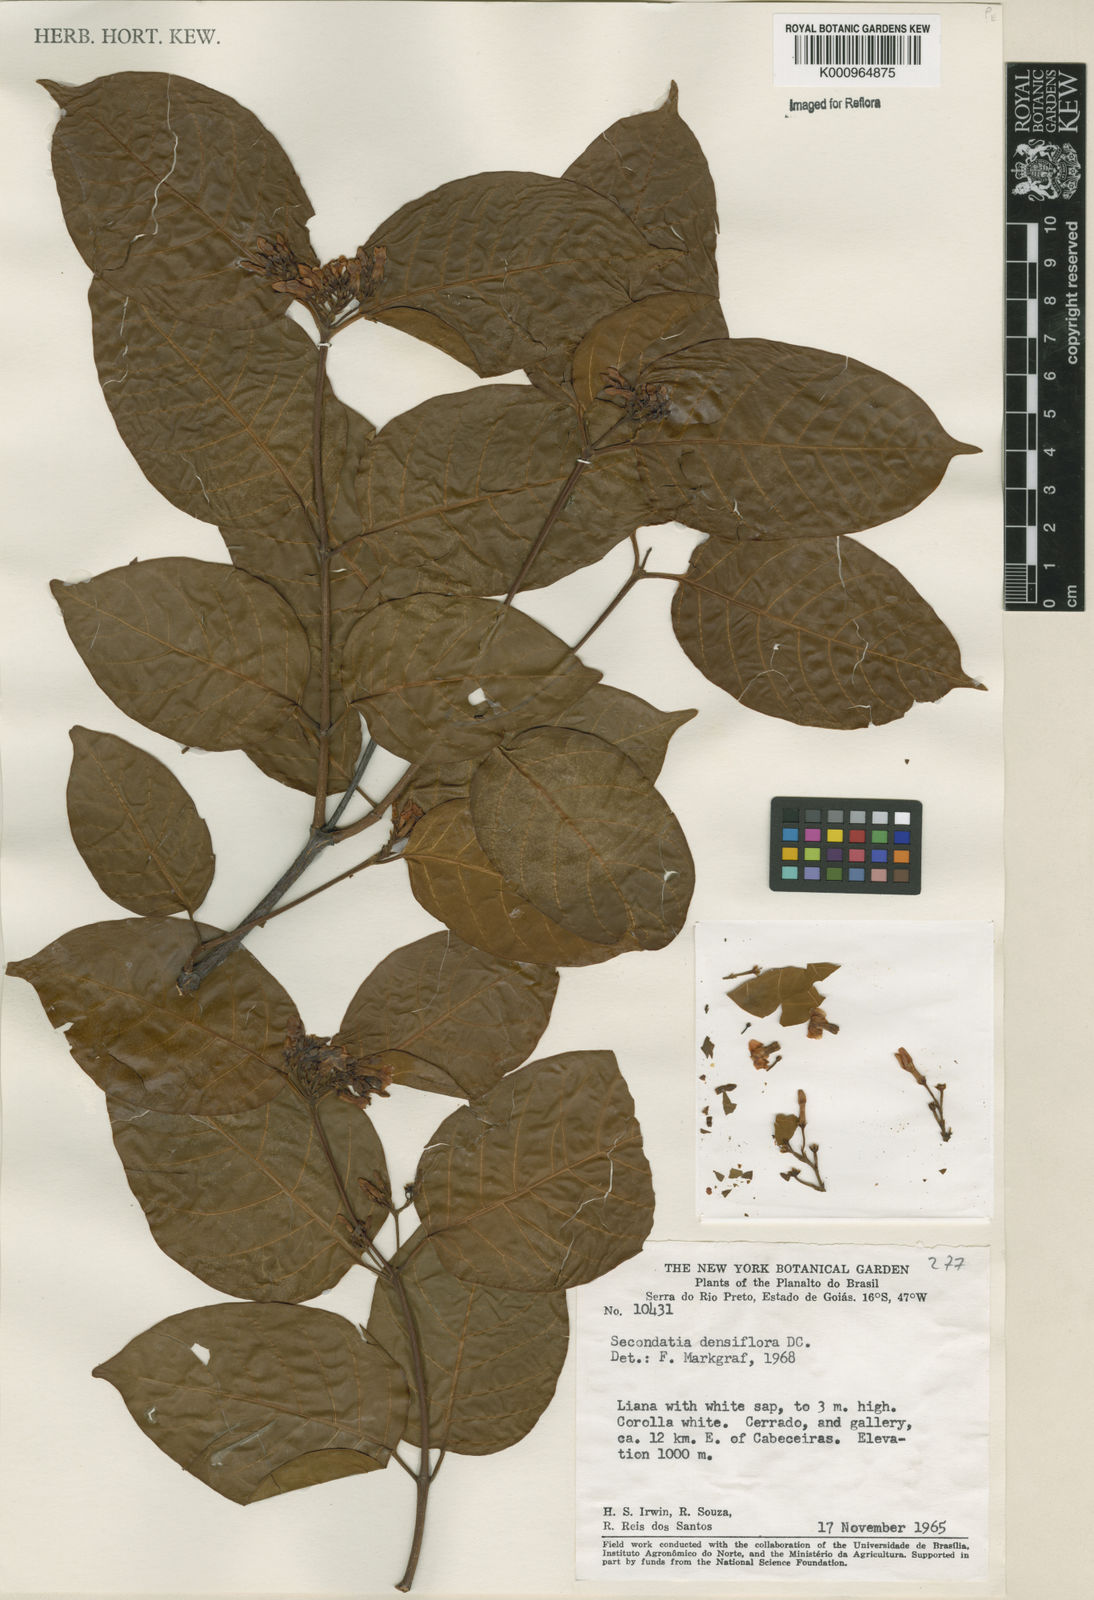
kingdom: Plantae
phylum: Tracheophyta
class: Magnoliopsida
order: Gentianales
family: Apocynaceae
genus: Secondatia
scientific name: Secondatia densiflora
